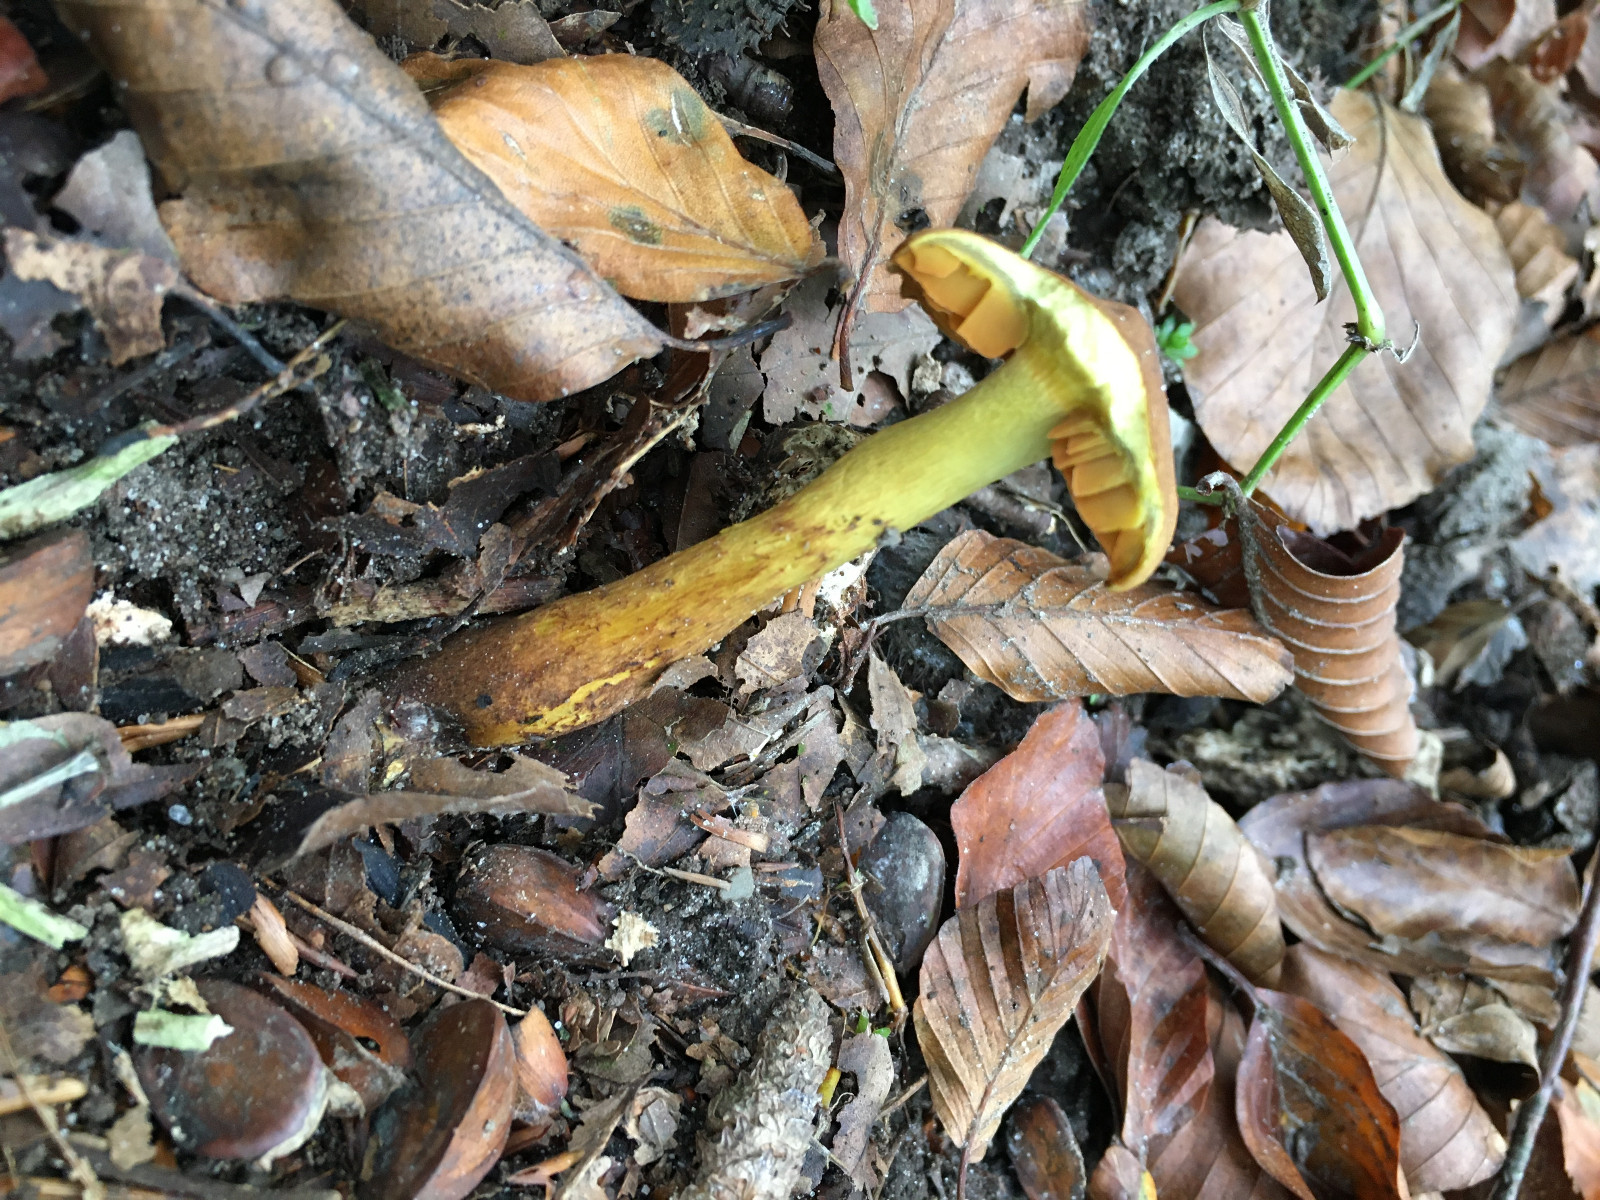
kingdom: Fungi
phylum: Basidiomycota
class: Agaricomycetes
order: Agaricales
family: Cortinariaceae
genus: Cortinarius
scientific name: Cortinarius malicorius
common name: grønkødet slørhat
